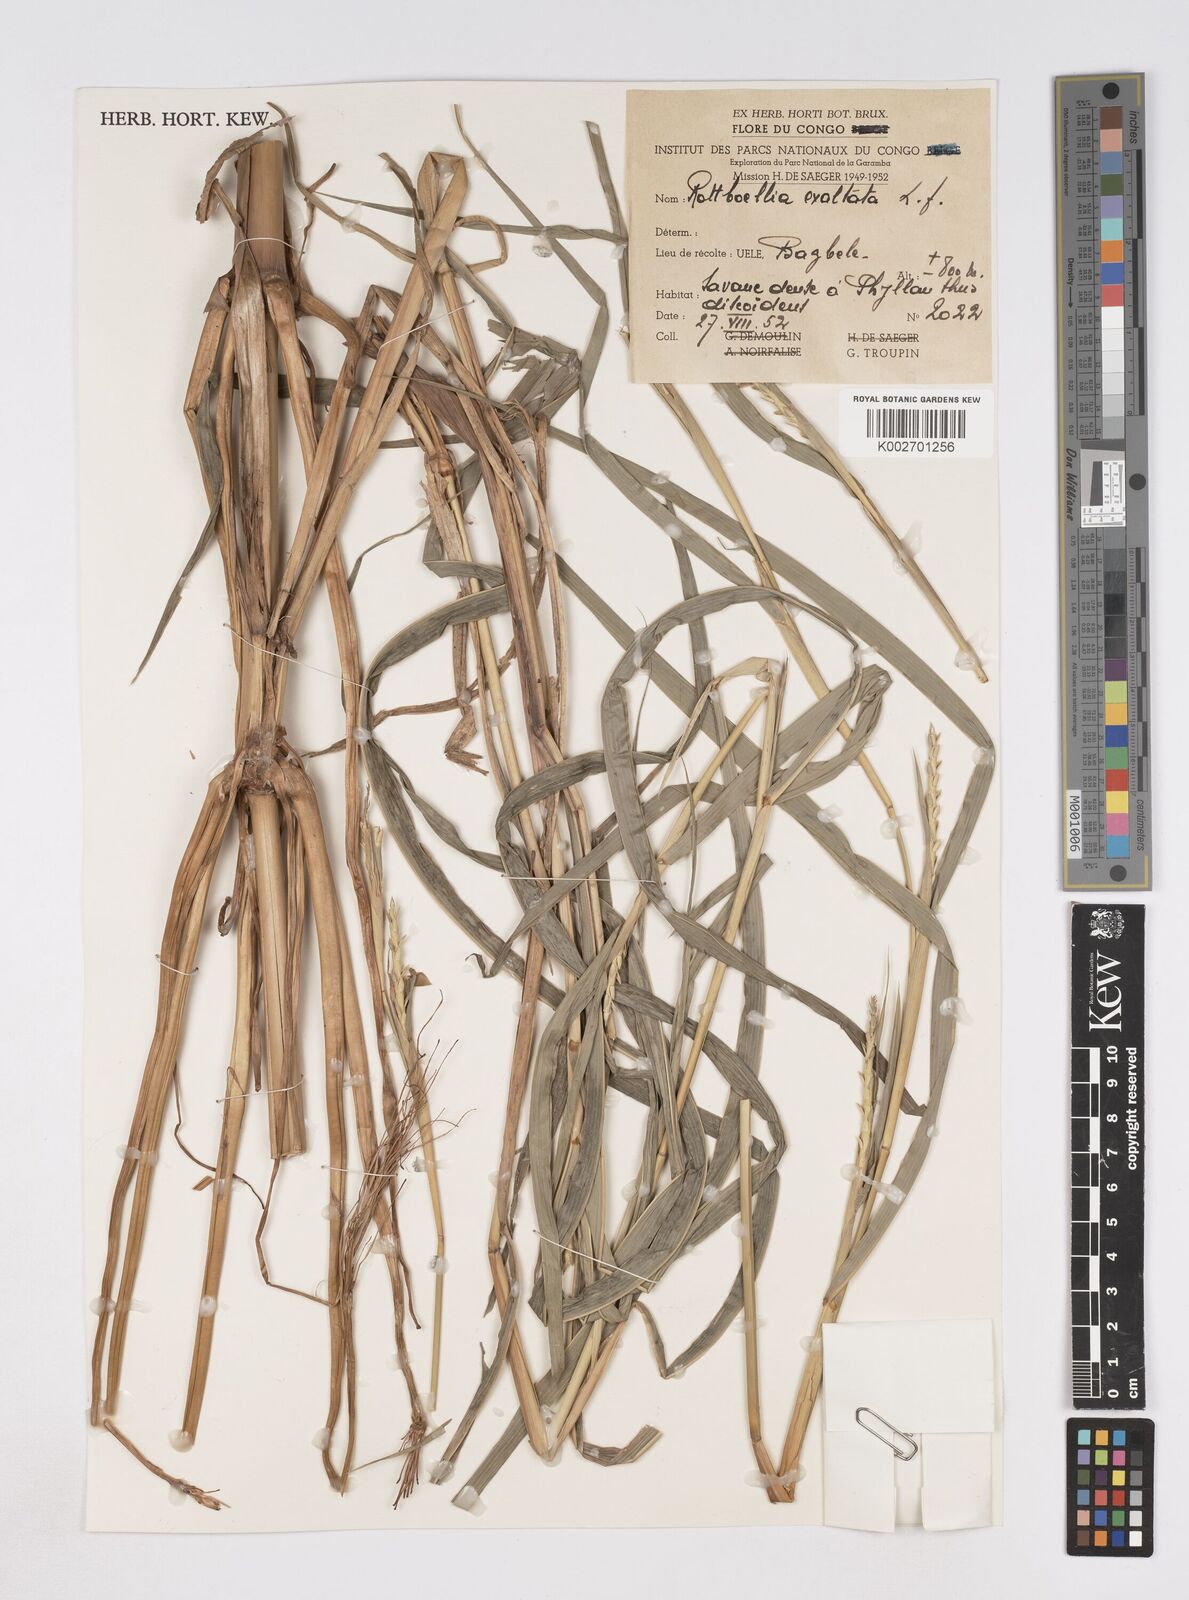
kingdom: Plantae
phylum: Tracheophyta
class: Liliopsida
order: Poales
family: Poaceae
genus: Rottboellia
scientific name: Rottboellia
